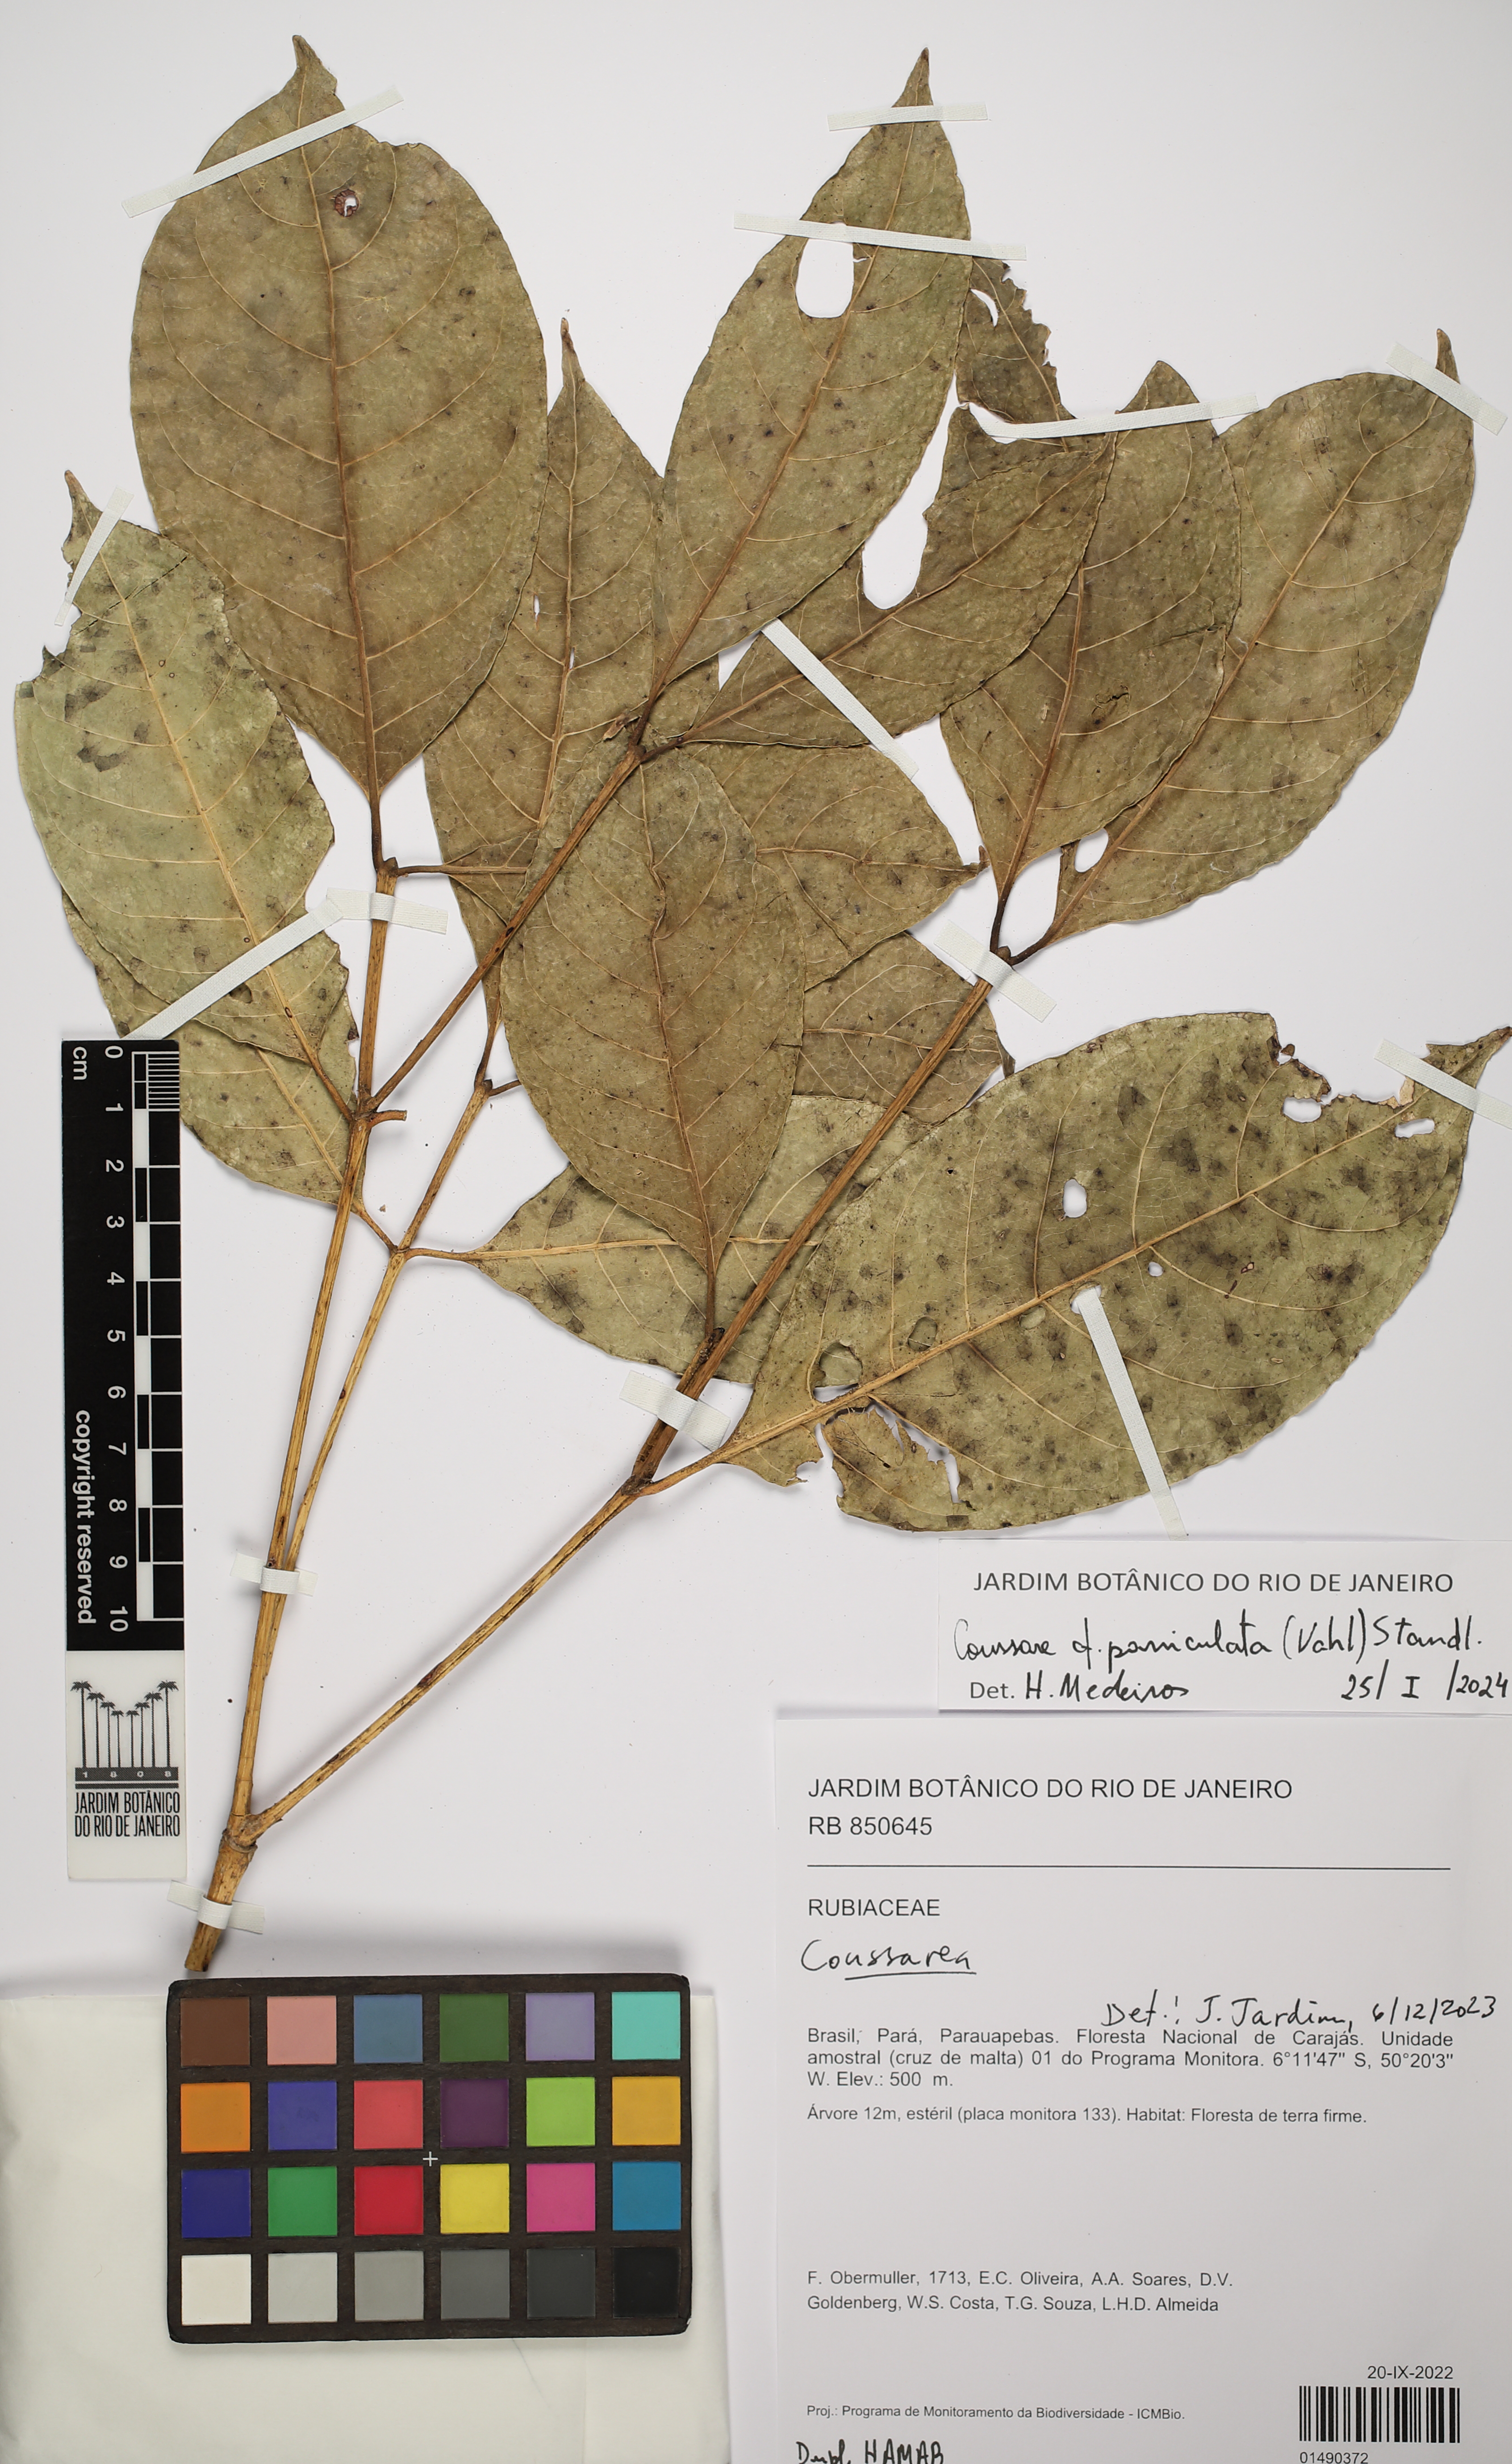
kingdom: Plantae
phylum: Tracheophyta
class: Magnoliopsida
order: Gentianales
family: Rubiaceae
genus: Coussarea
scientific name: Coussarea paniculata
